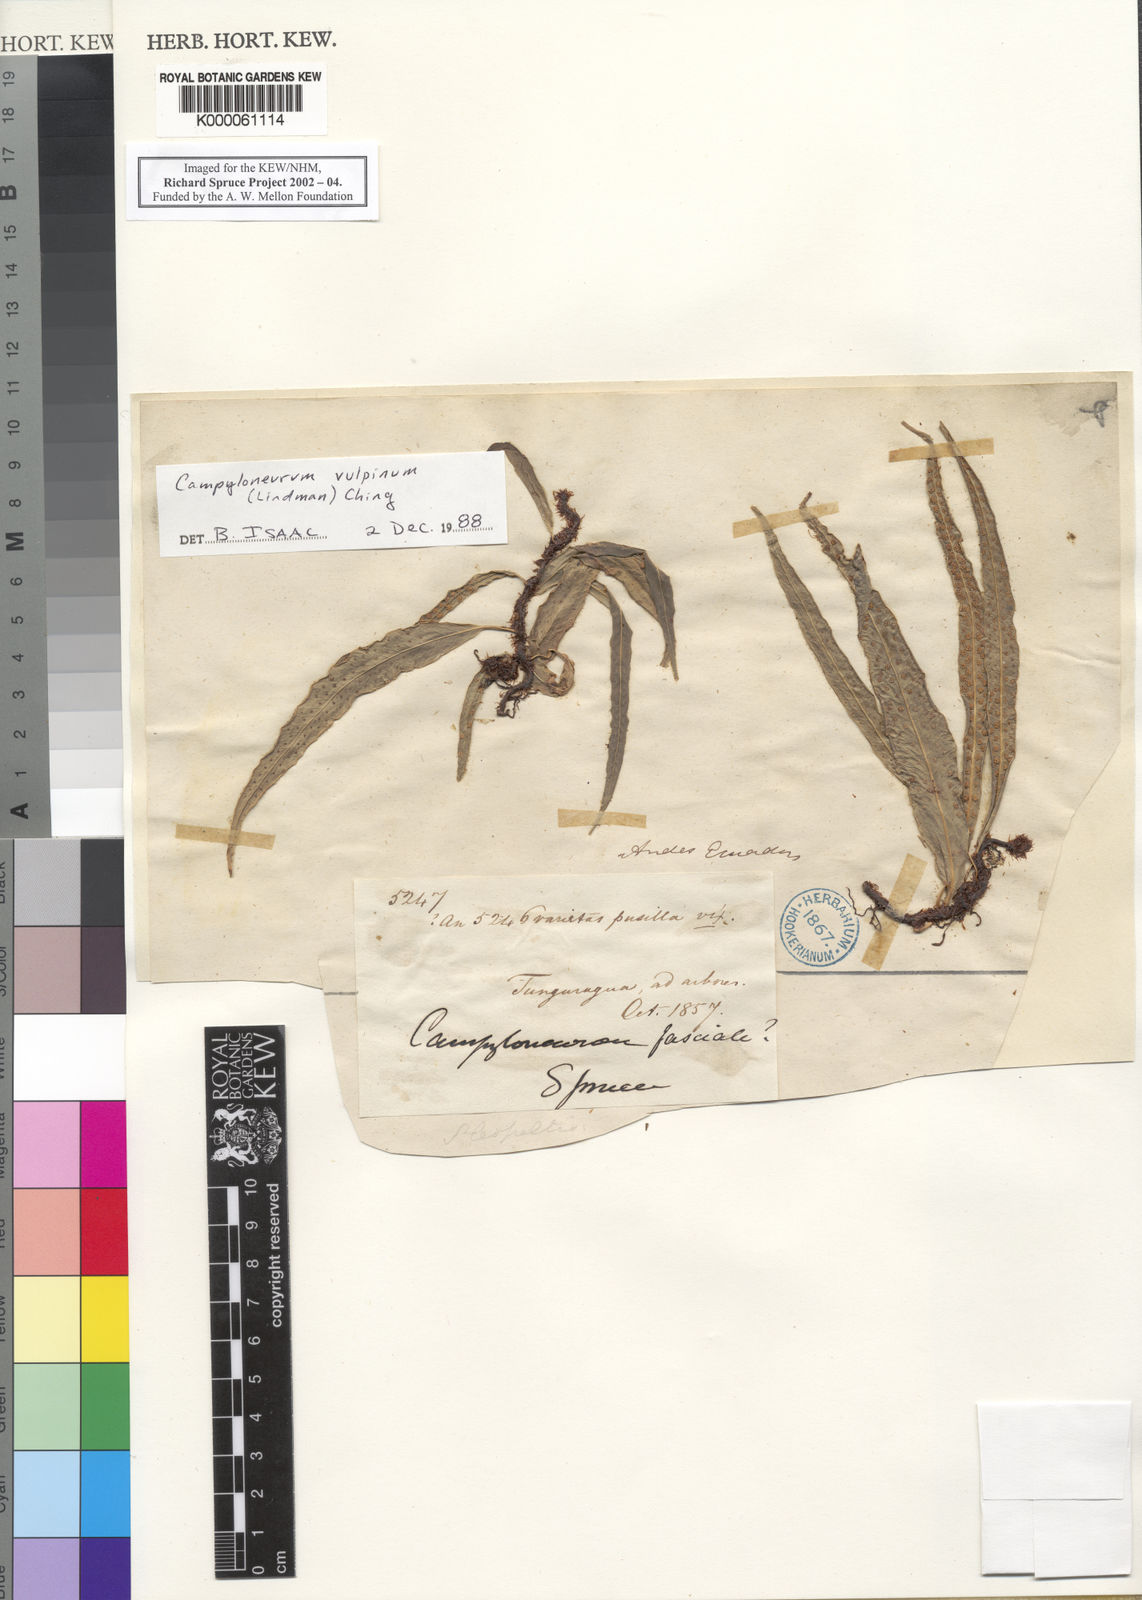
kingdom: Plantae
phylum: Tracheophyta
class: Polypodiopsida
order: Polypodiales
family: Polypodiaceae
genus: Campyloneurum
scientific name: Campyloneurum vulpinum
